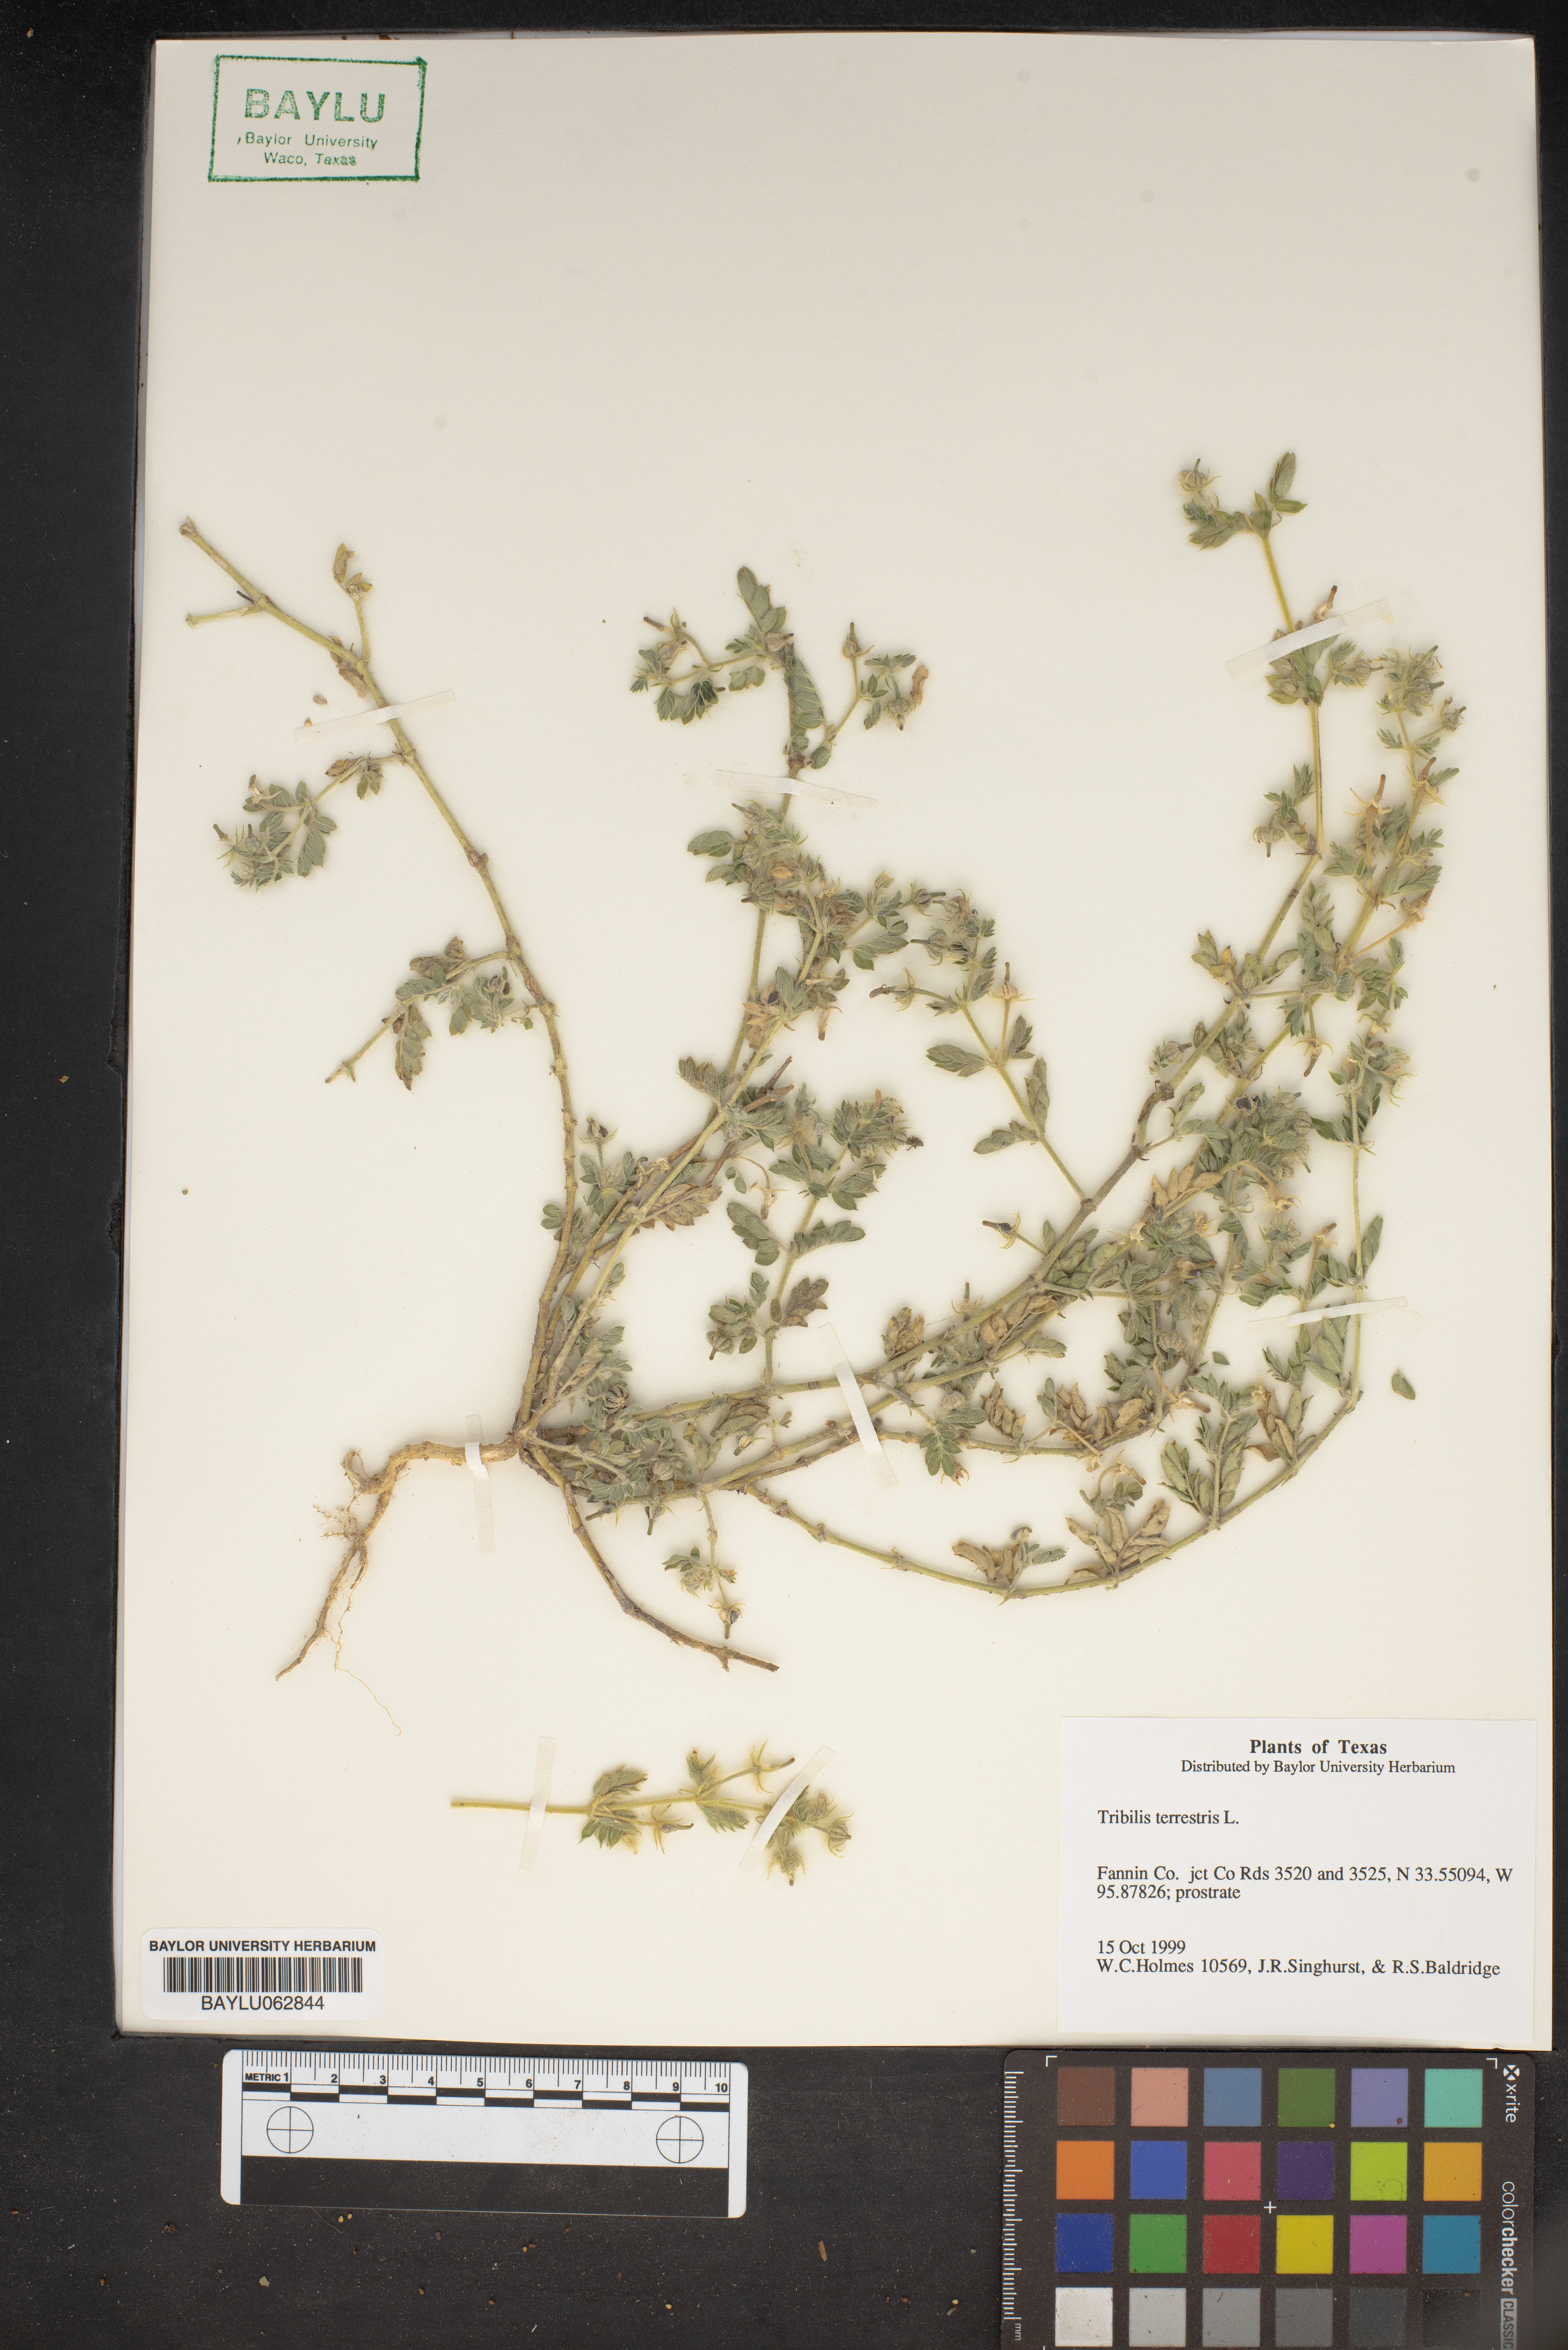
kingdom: Plantae
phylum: Tracheophyta
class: Magnoliopsida
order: Zygophyllales
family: Zygophyllaceae
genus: Tribulus
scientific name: Tribulus terrestris
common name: Puncturevine
